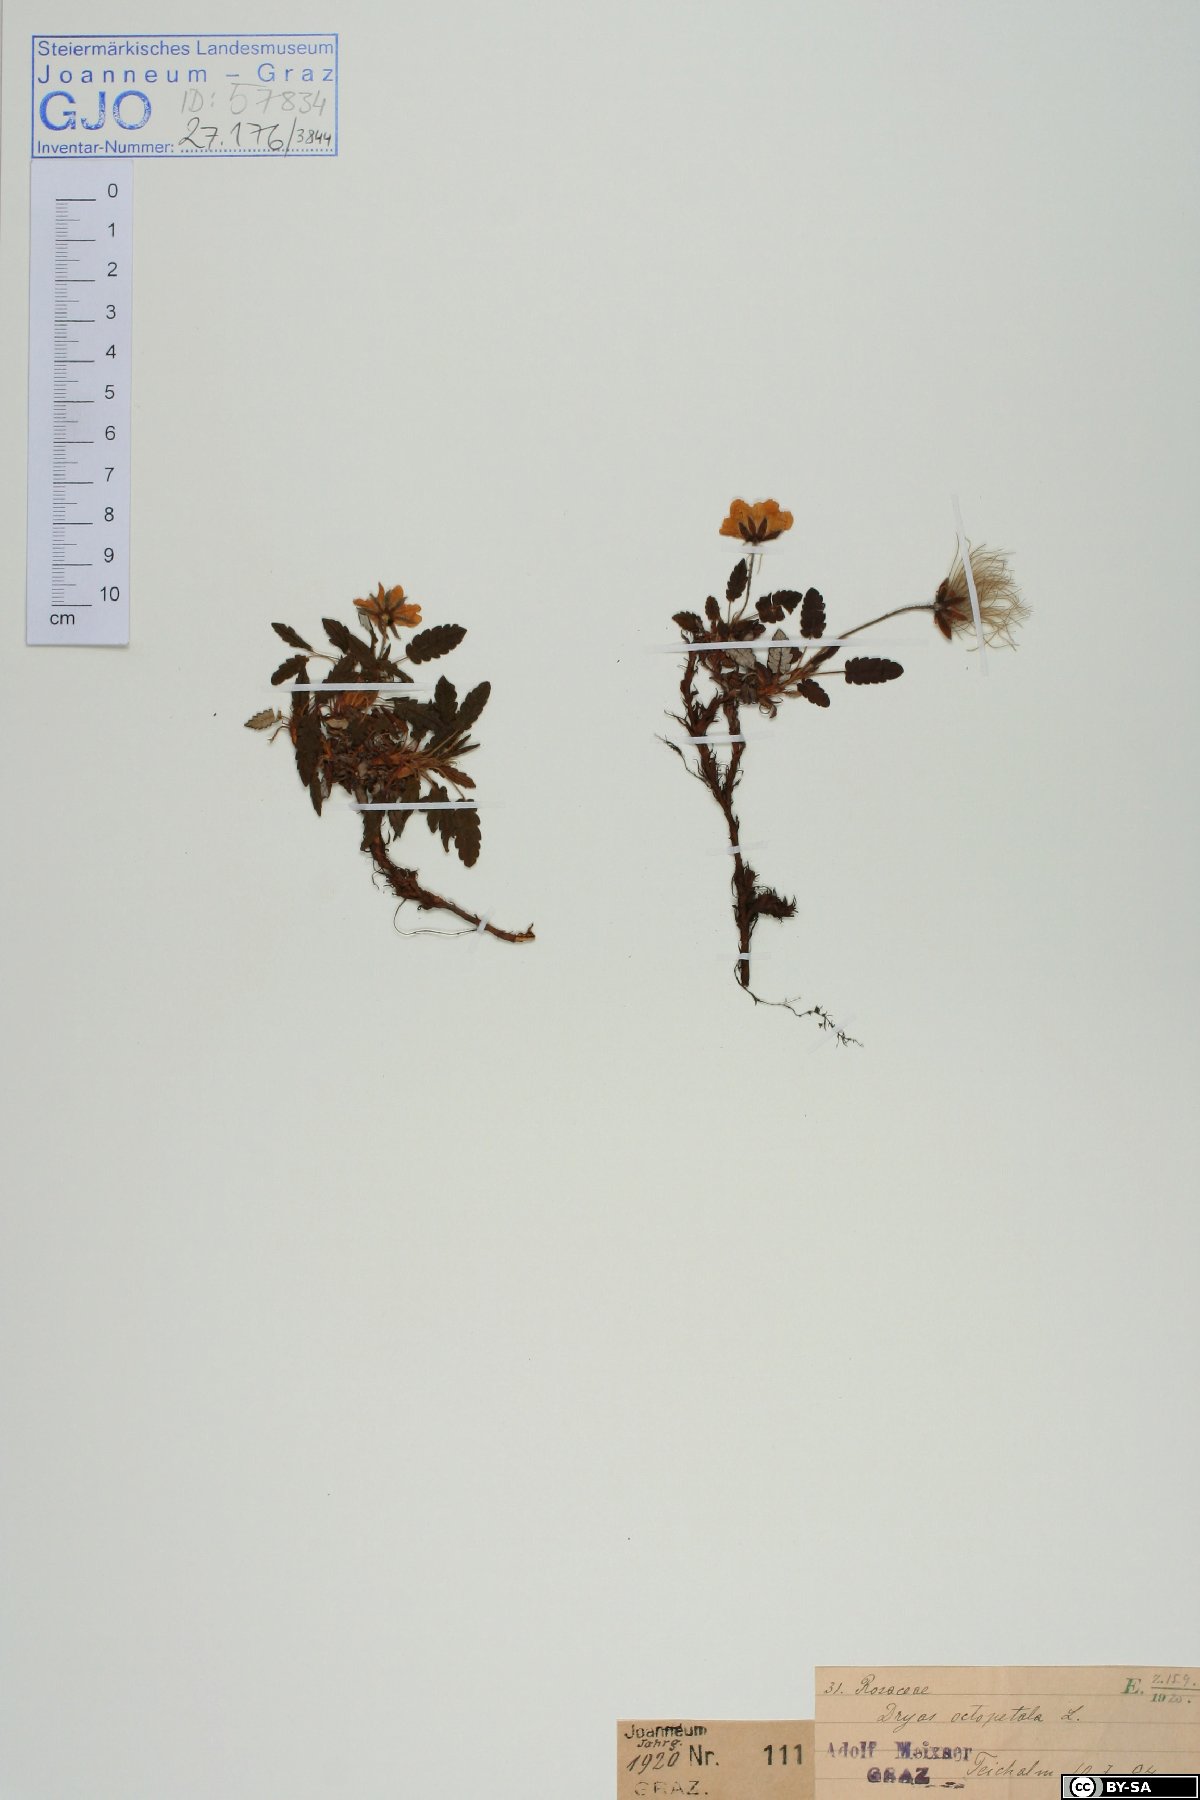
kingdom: Plantae
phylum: Tracheophyta
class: Magnoliopsida
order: Rosales
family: Rosaceae
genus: Dryas
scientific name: Dryas octopetala
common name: Eight-petal mountain-avens
